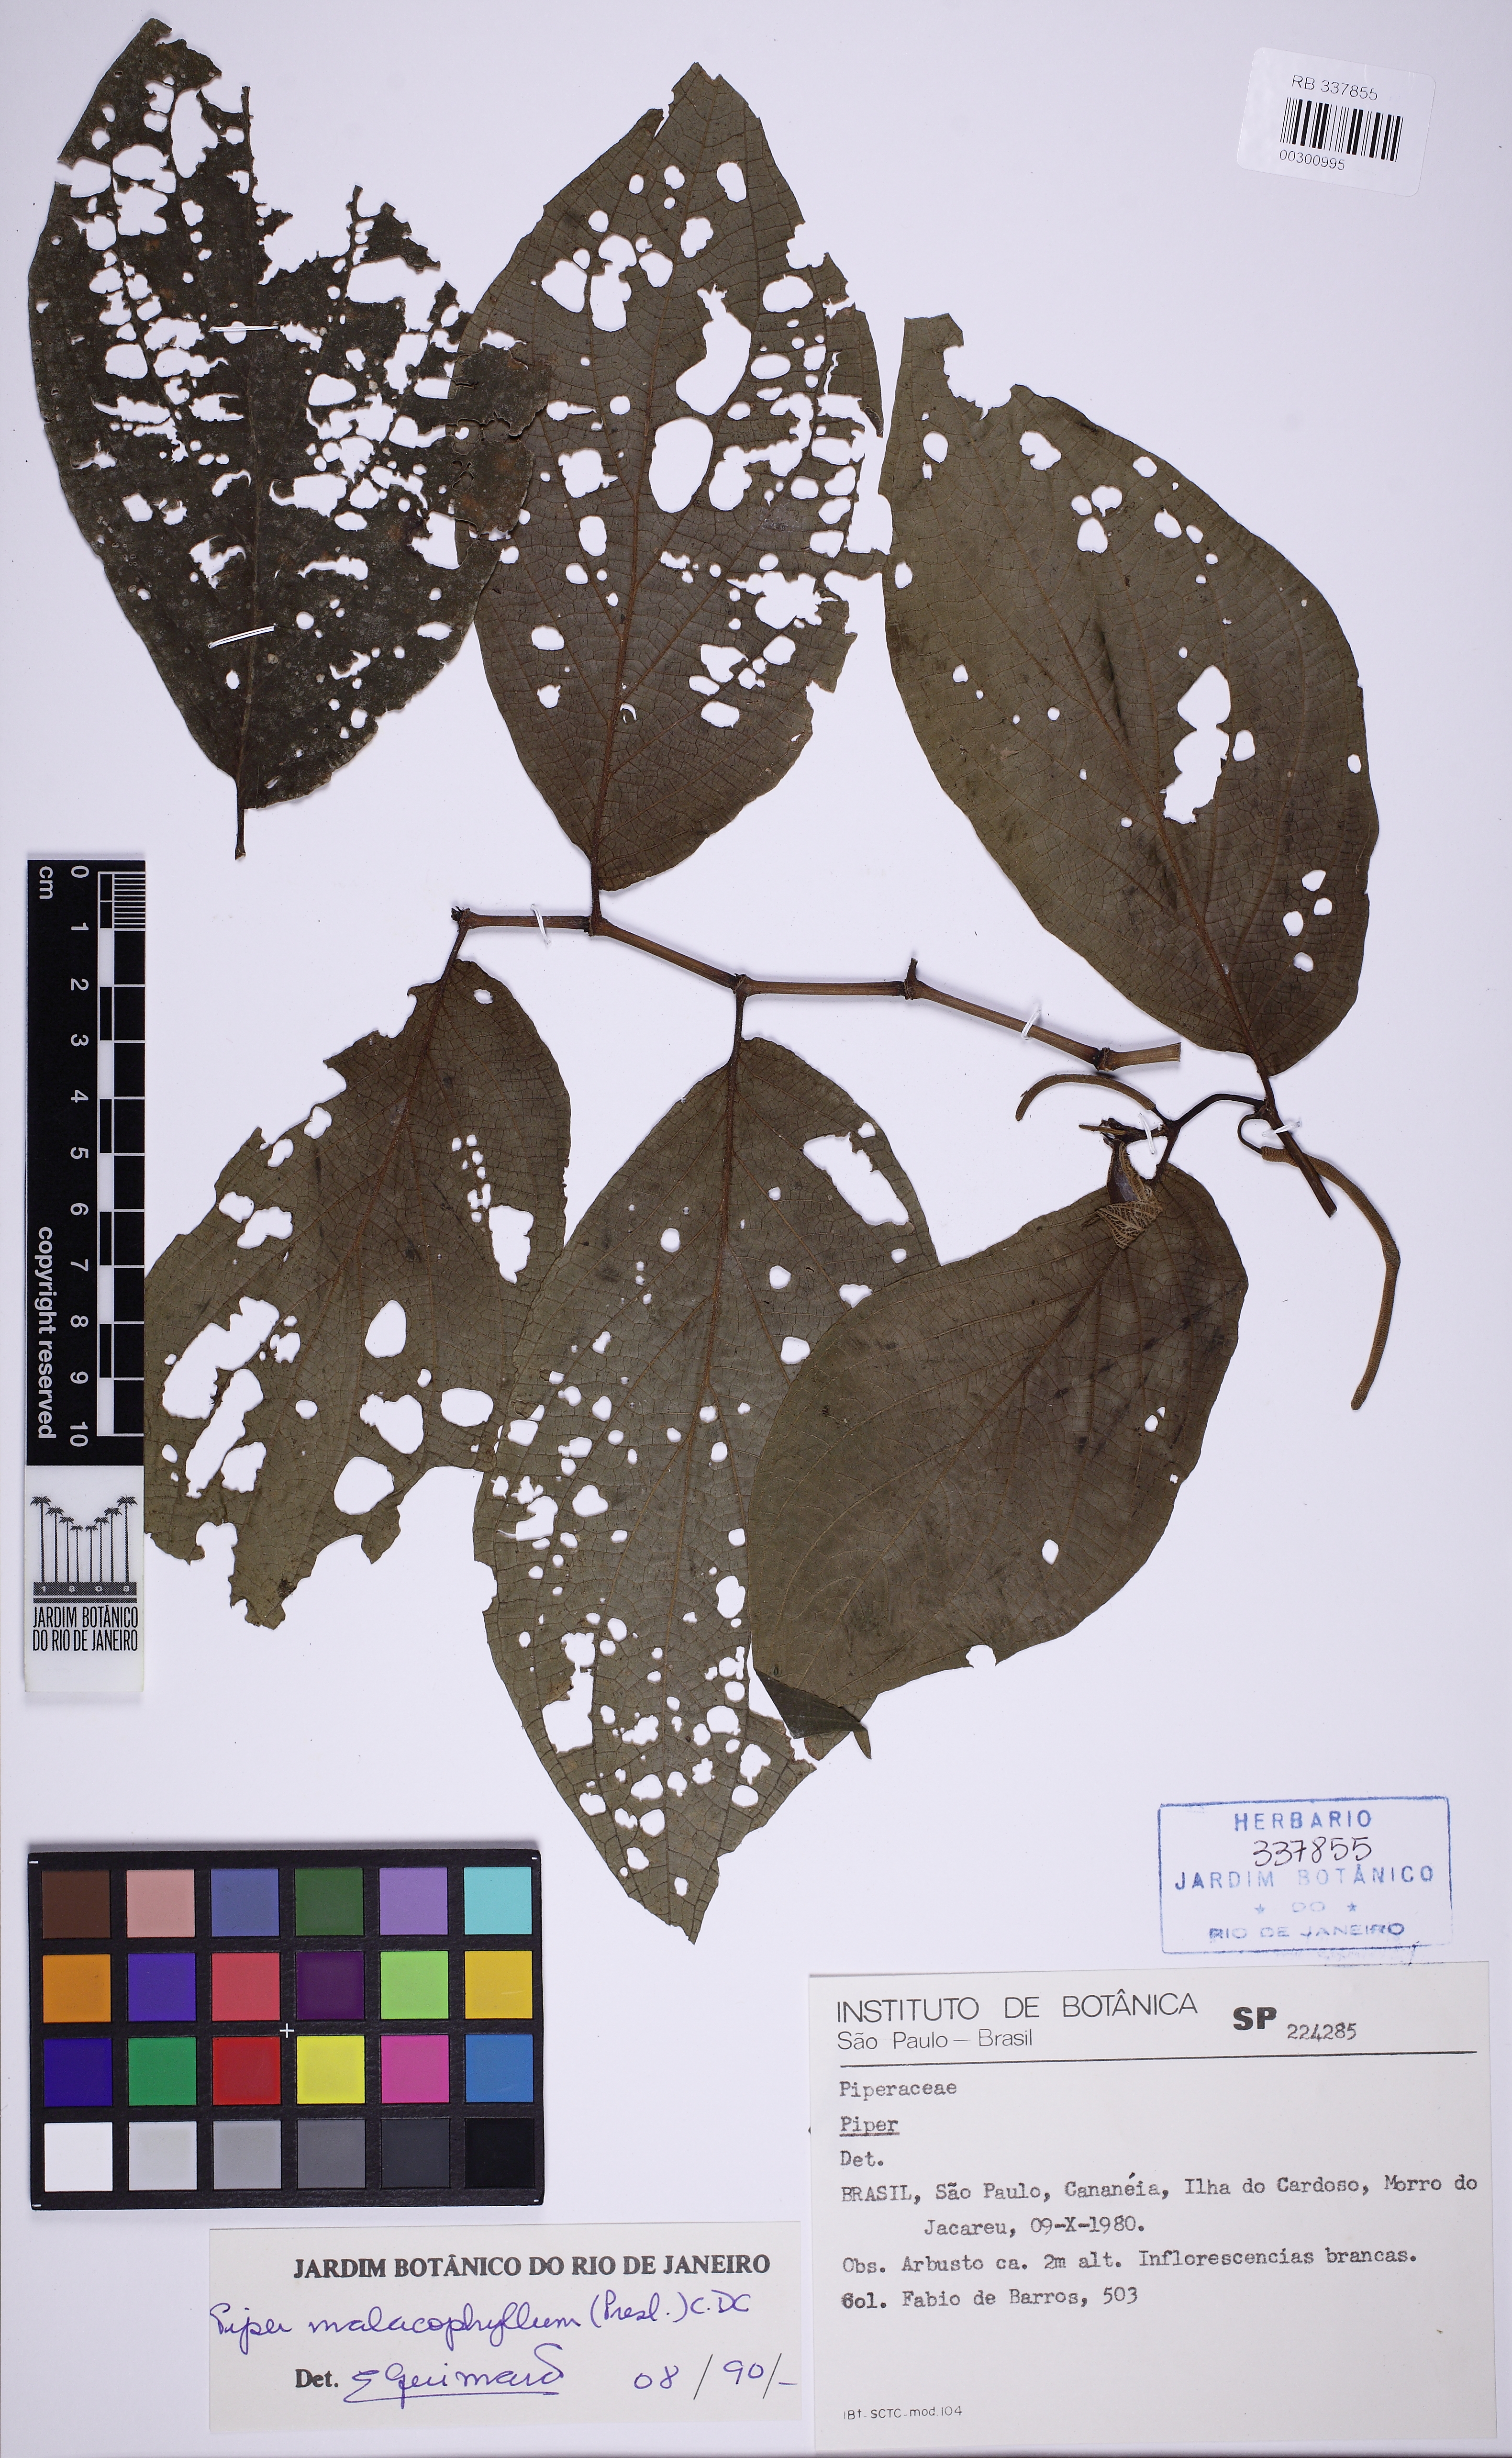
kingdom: Plantae
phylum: Tracheophyta
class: Magnoliopsida
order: Piperales
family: Piperaceae
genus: Piper
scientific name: Piper malacophyllum
